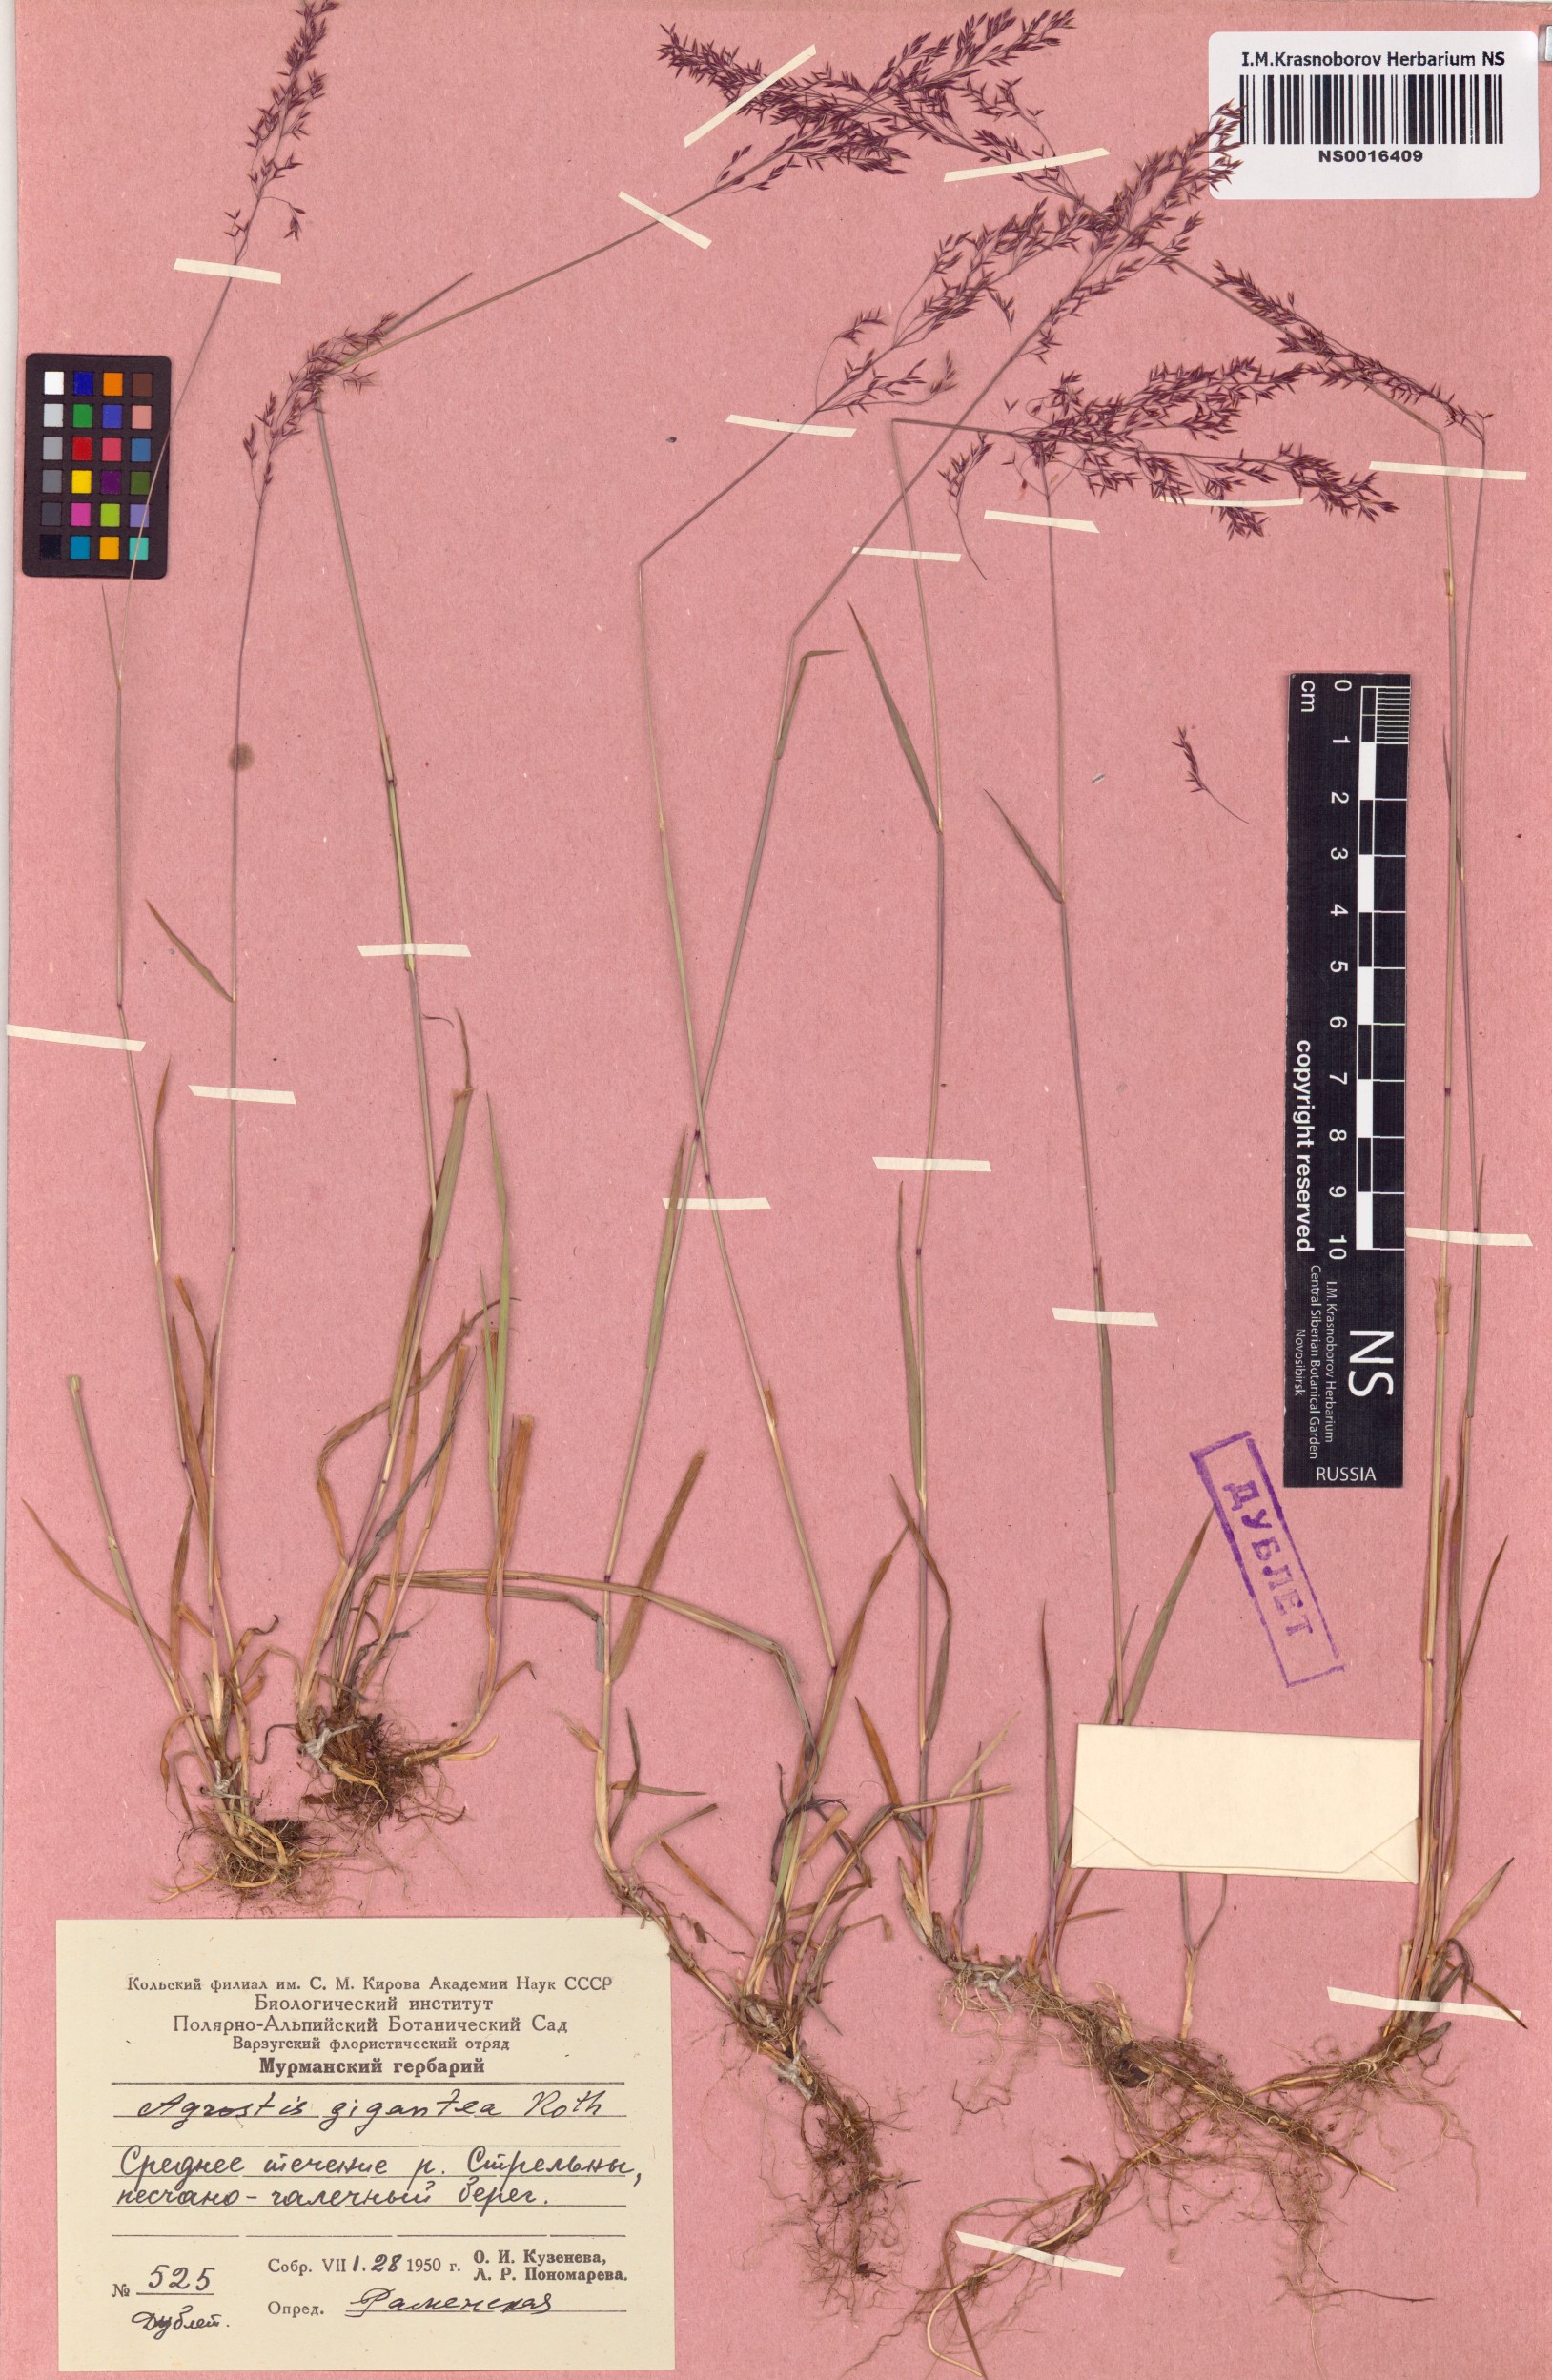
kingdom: Plantae
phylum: Tracheophyta
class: Liliopsida
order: Poales
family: Poaceae
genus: Agrostis
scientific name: Agrostis gigantea
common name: Black bent
